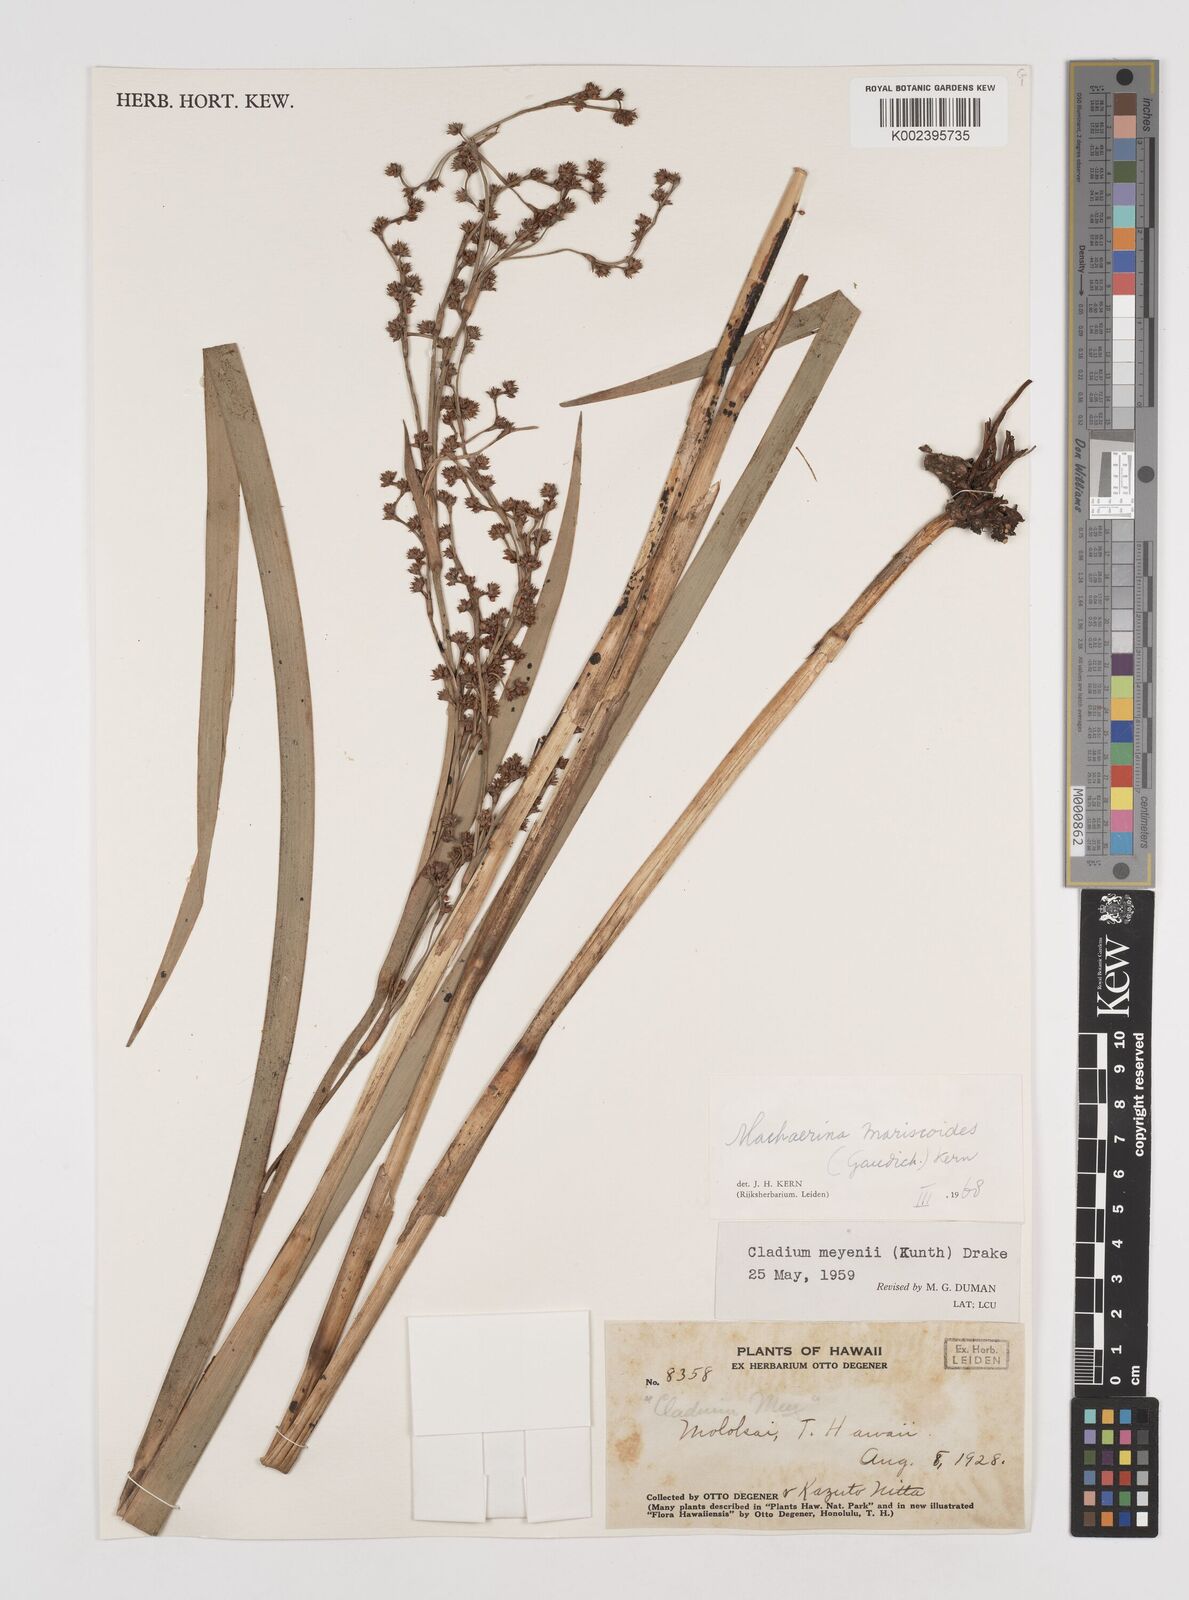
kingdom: Plantae
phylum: Tracheophyta
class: Liliopsida
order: Poales
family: Cyperaceae
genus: Machaerina
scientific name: Machaerina mariscoides
